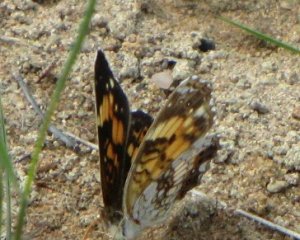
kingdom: Animalia
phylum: Arthropoda
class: Insecta
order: Lepidoptera
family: Nymphalidae
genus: Chlosyne
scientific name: Chlosyne nycteis
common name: Silvery Checkerspot
